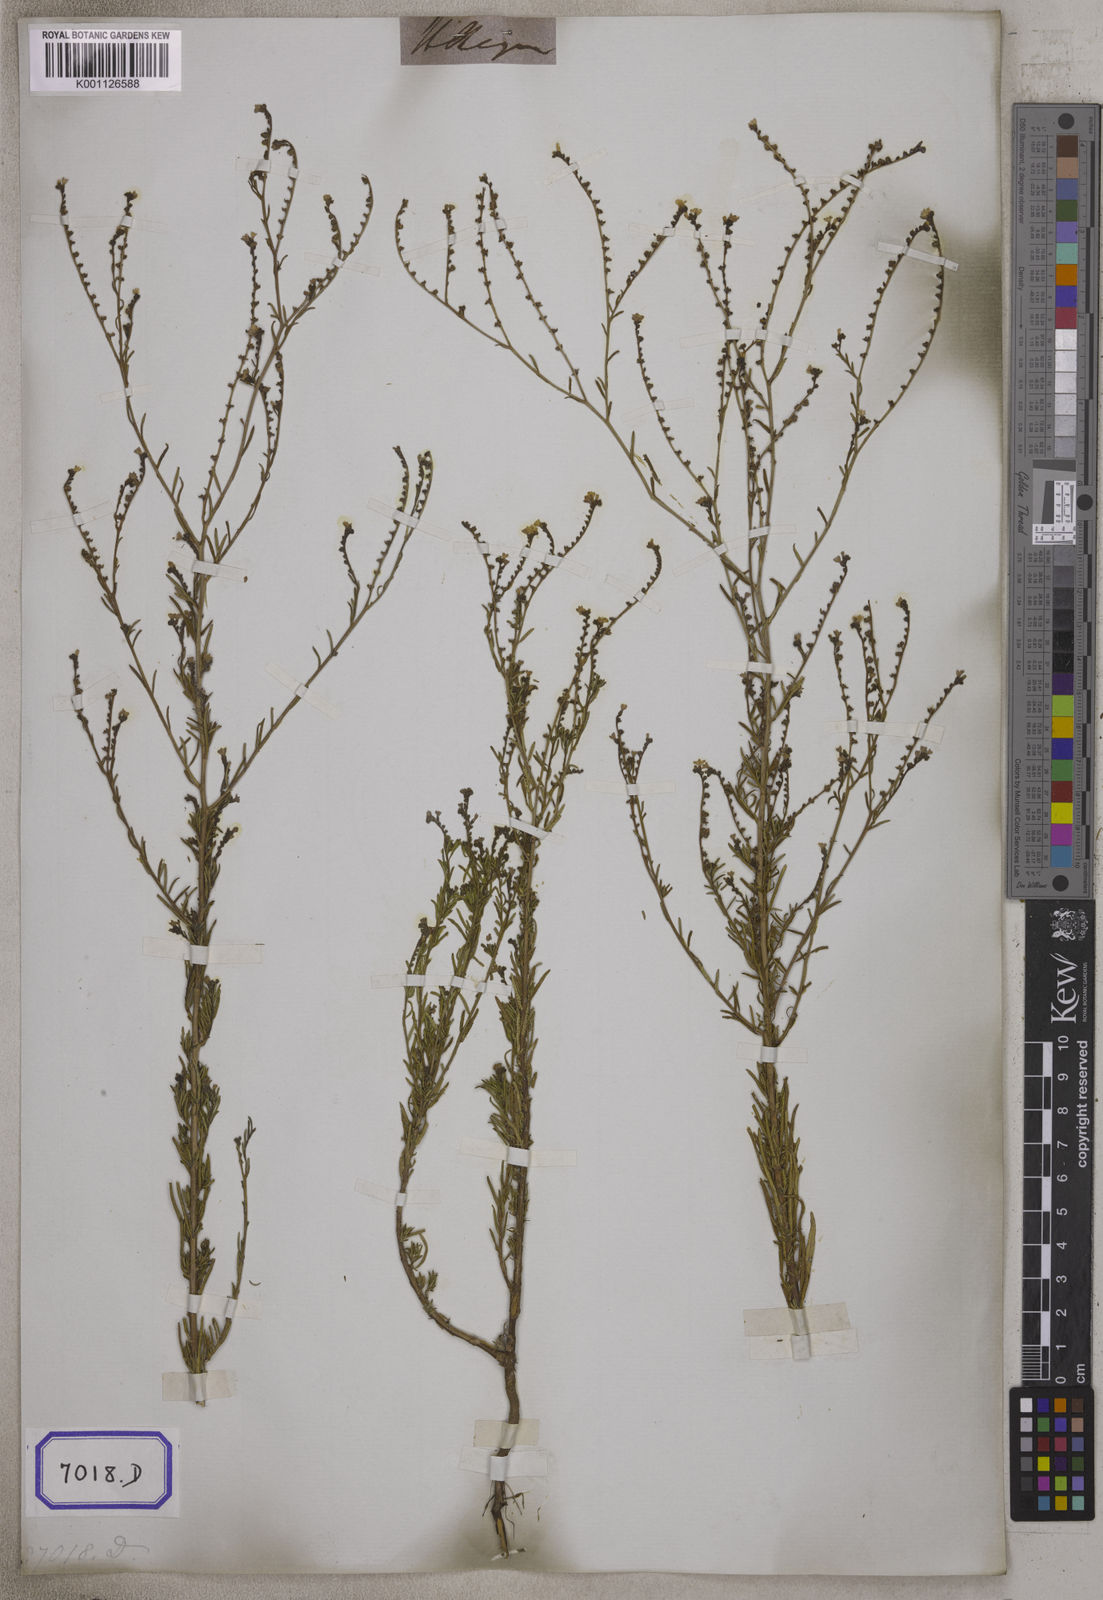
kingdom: Plantae
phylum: Tracheophyta
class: Magnoliopsida
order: Boraginales
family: Boraginaceae
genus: Cynoglossum
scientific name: Cynoglossum
